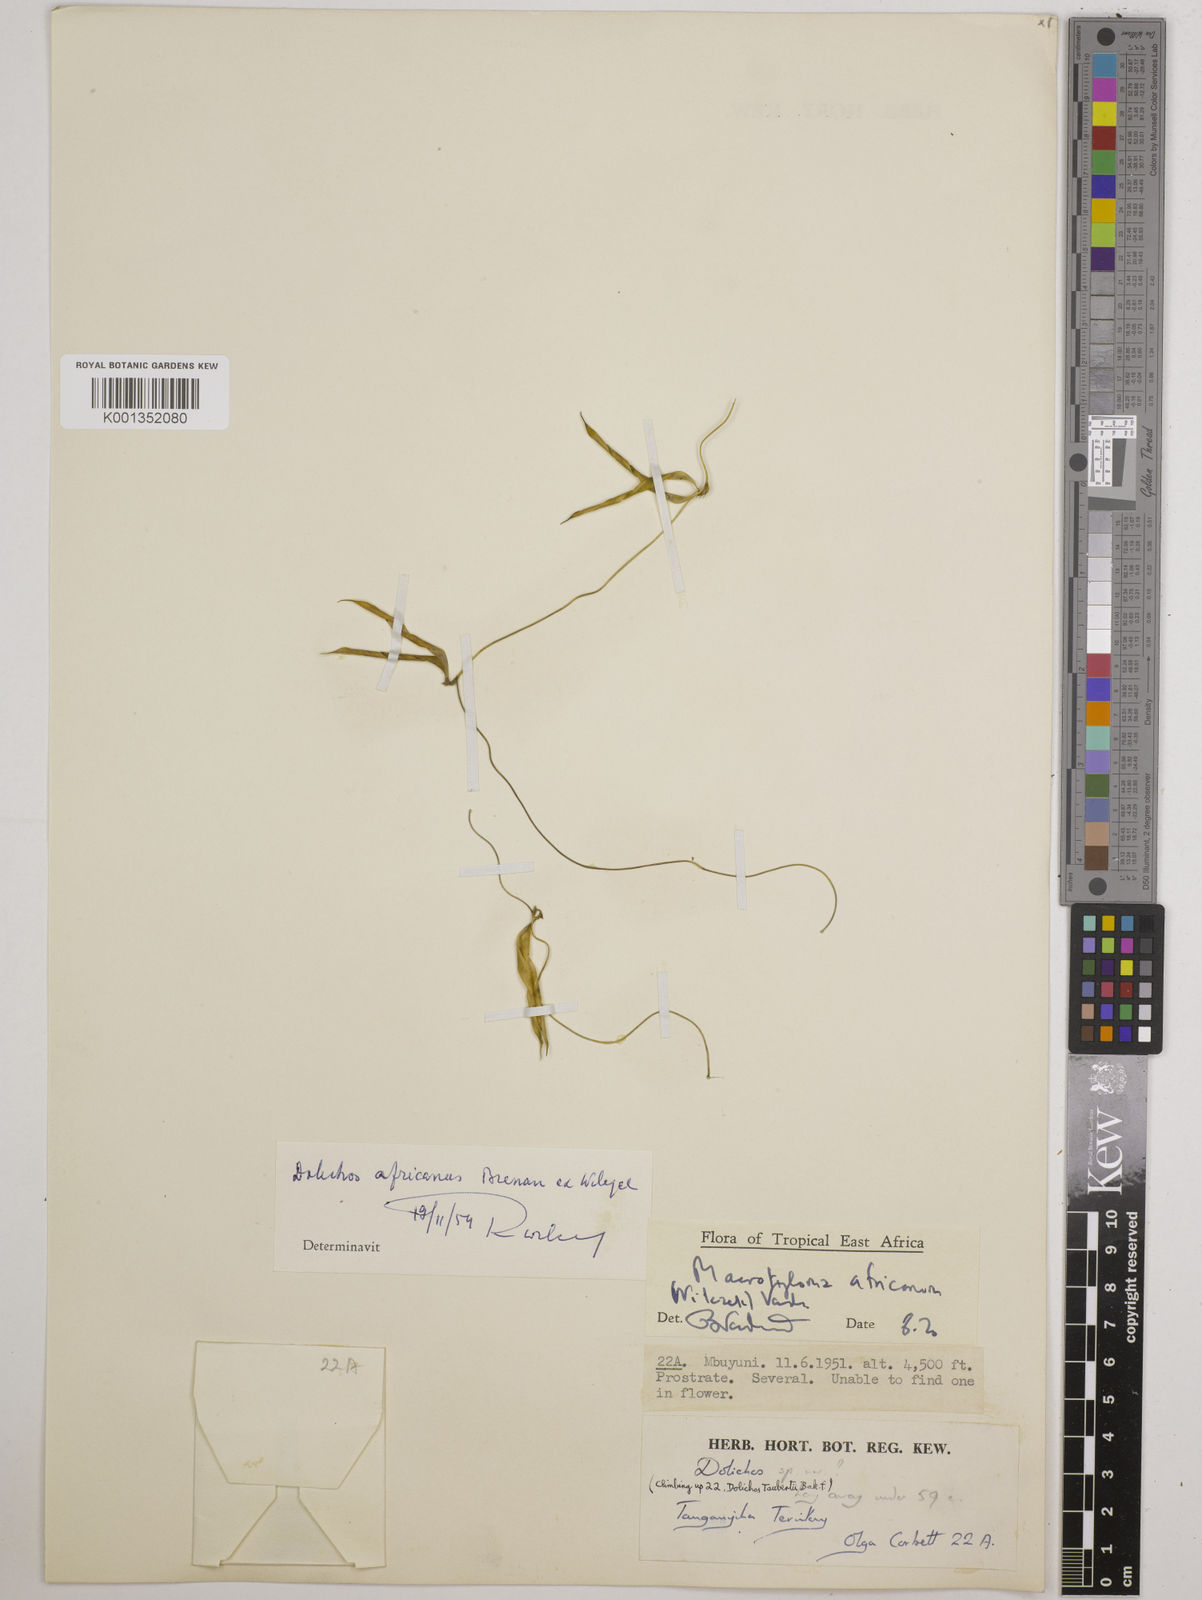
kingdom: Plantae
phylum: Tracheophyta
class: Magnoliopsida
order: Fabales
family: Fabaceae
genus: Macrotyloma
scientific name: Macrotyloma africanum
